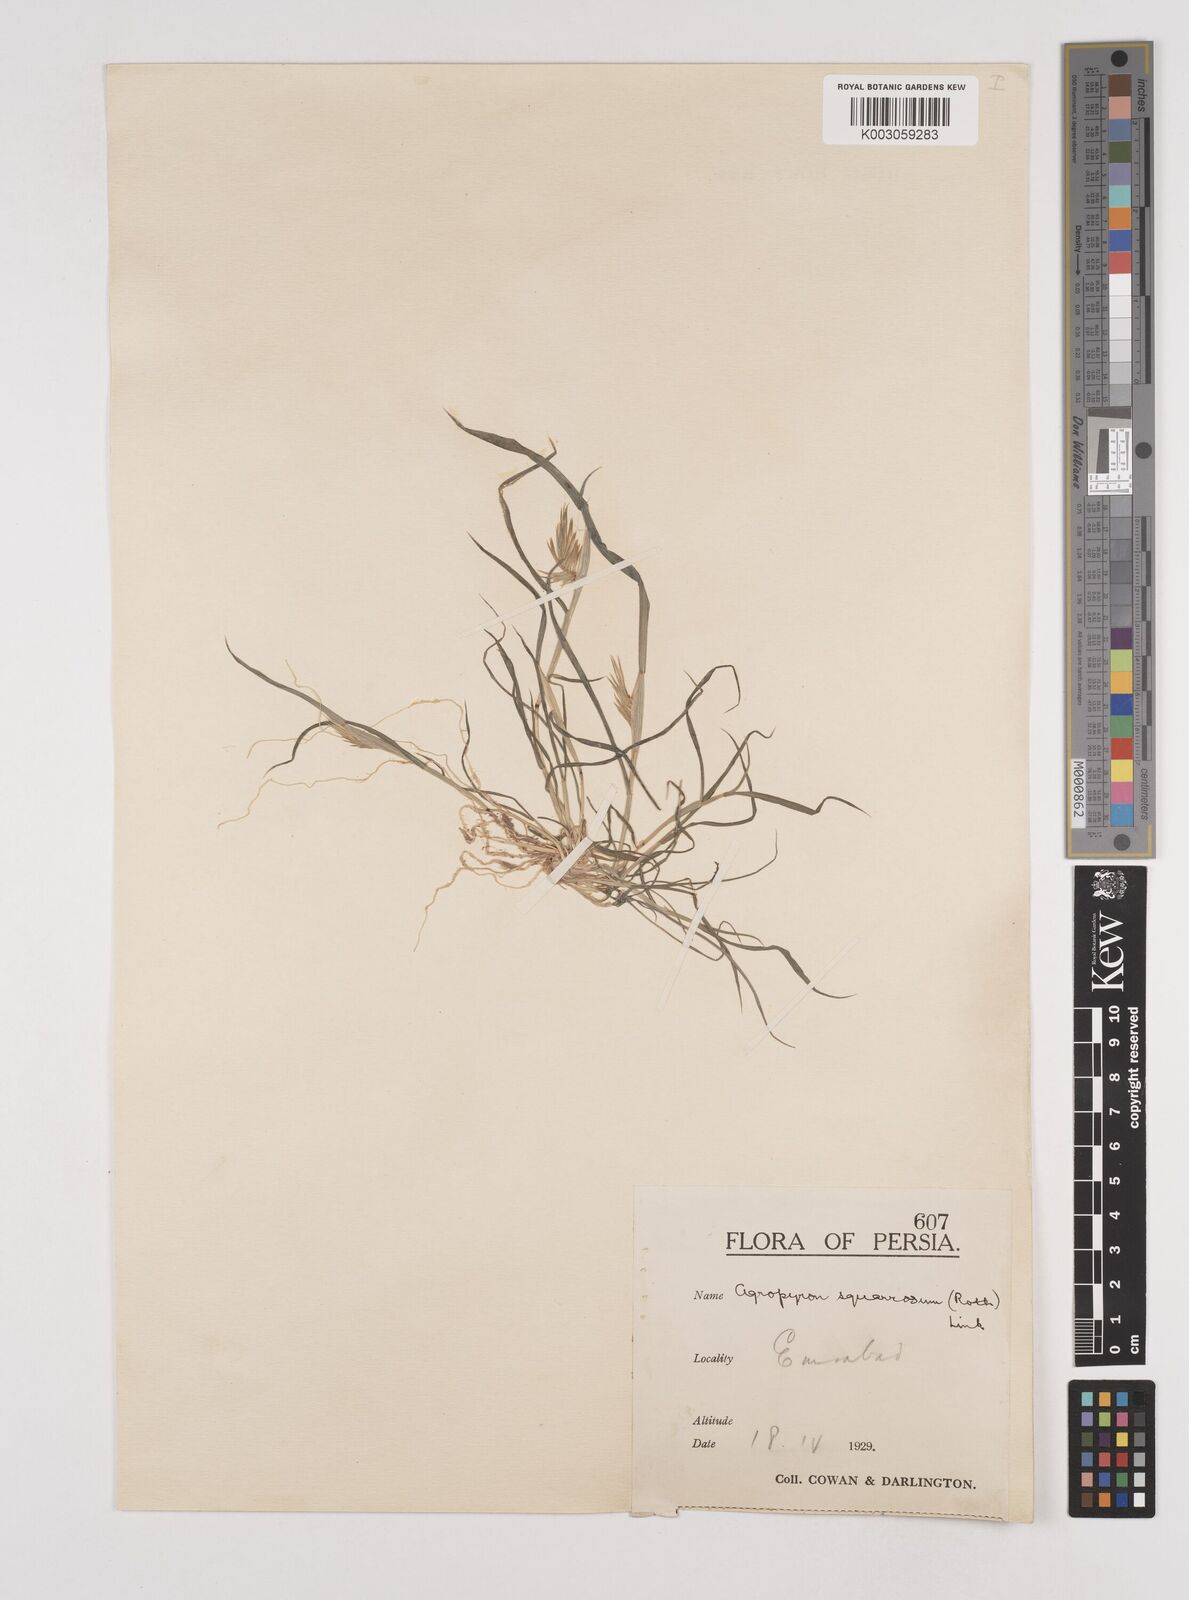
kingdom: Plantae
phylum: Tracheophyta
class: Liliopsida
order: Poales
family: Poaceae
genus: Eremopyrum
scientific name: Eremopyrum bonaepartis
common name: Tapertip false wheatgrass
